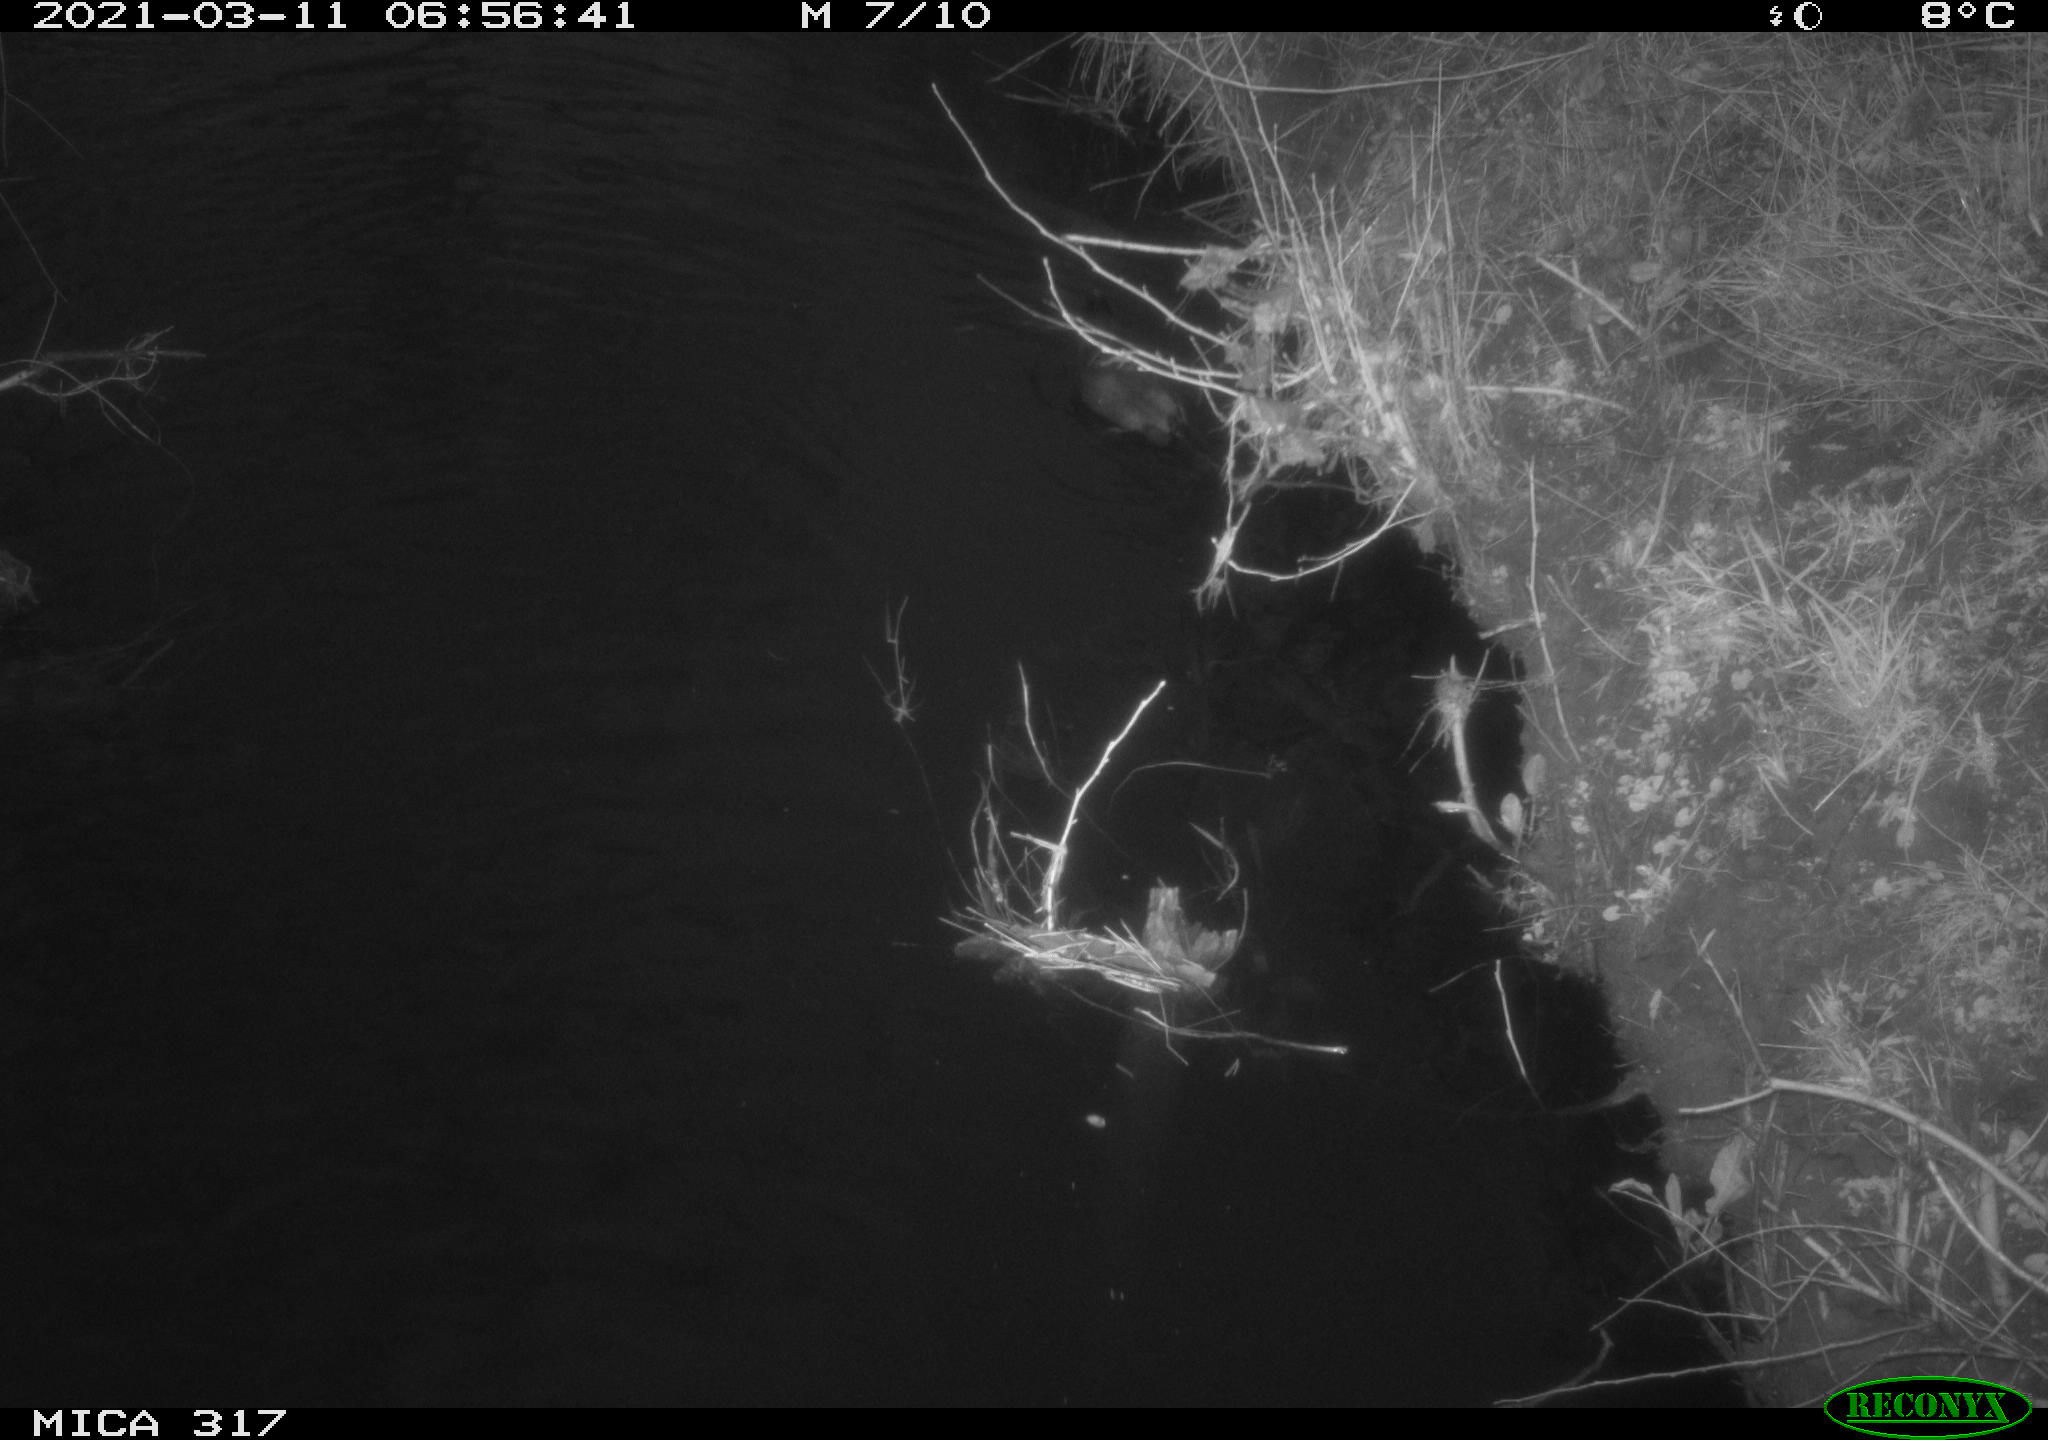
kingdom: Animalia
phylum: Chordata
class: Aves
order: Gruiformes
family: Rallidae
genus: Fulica
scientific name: Fulica atra
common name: Eurasian coot
